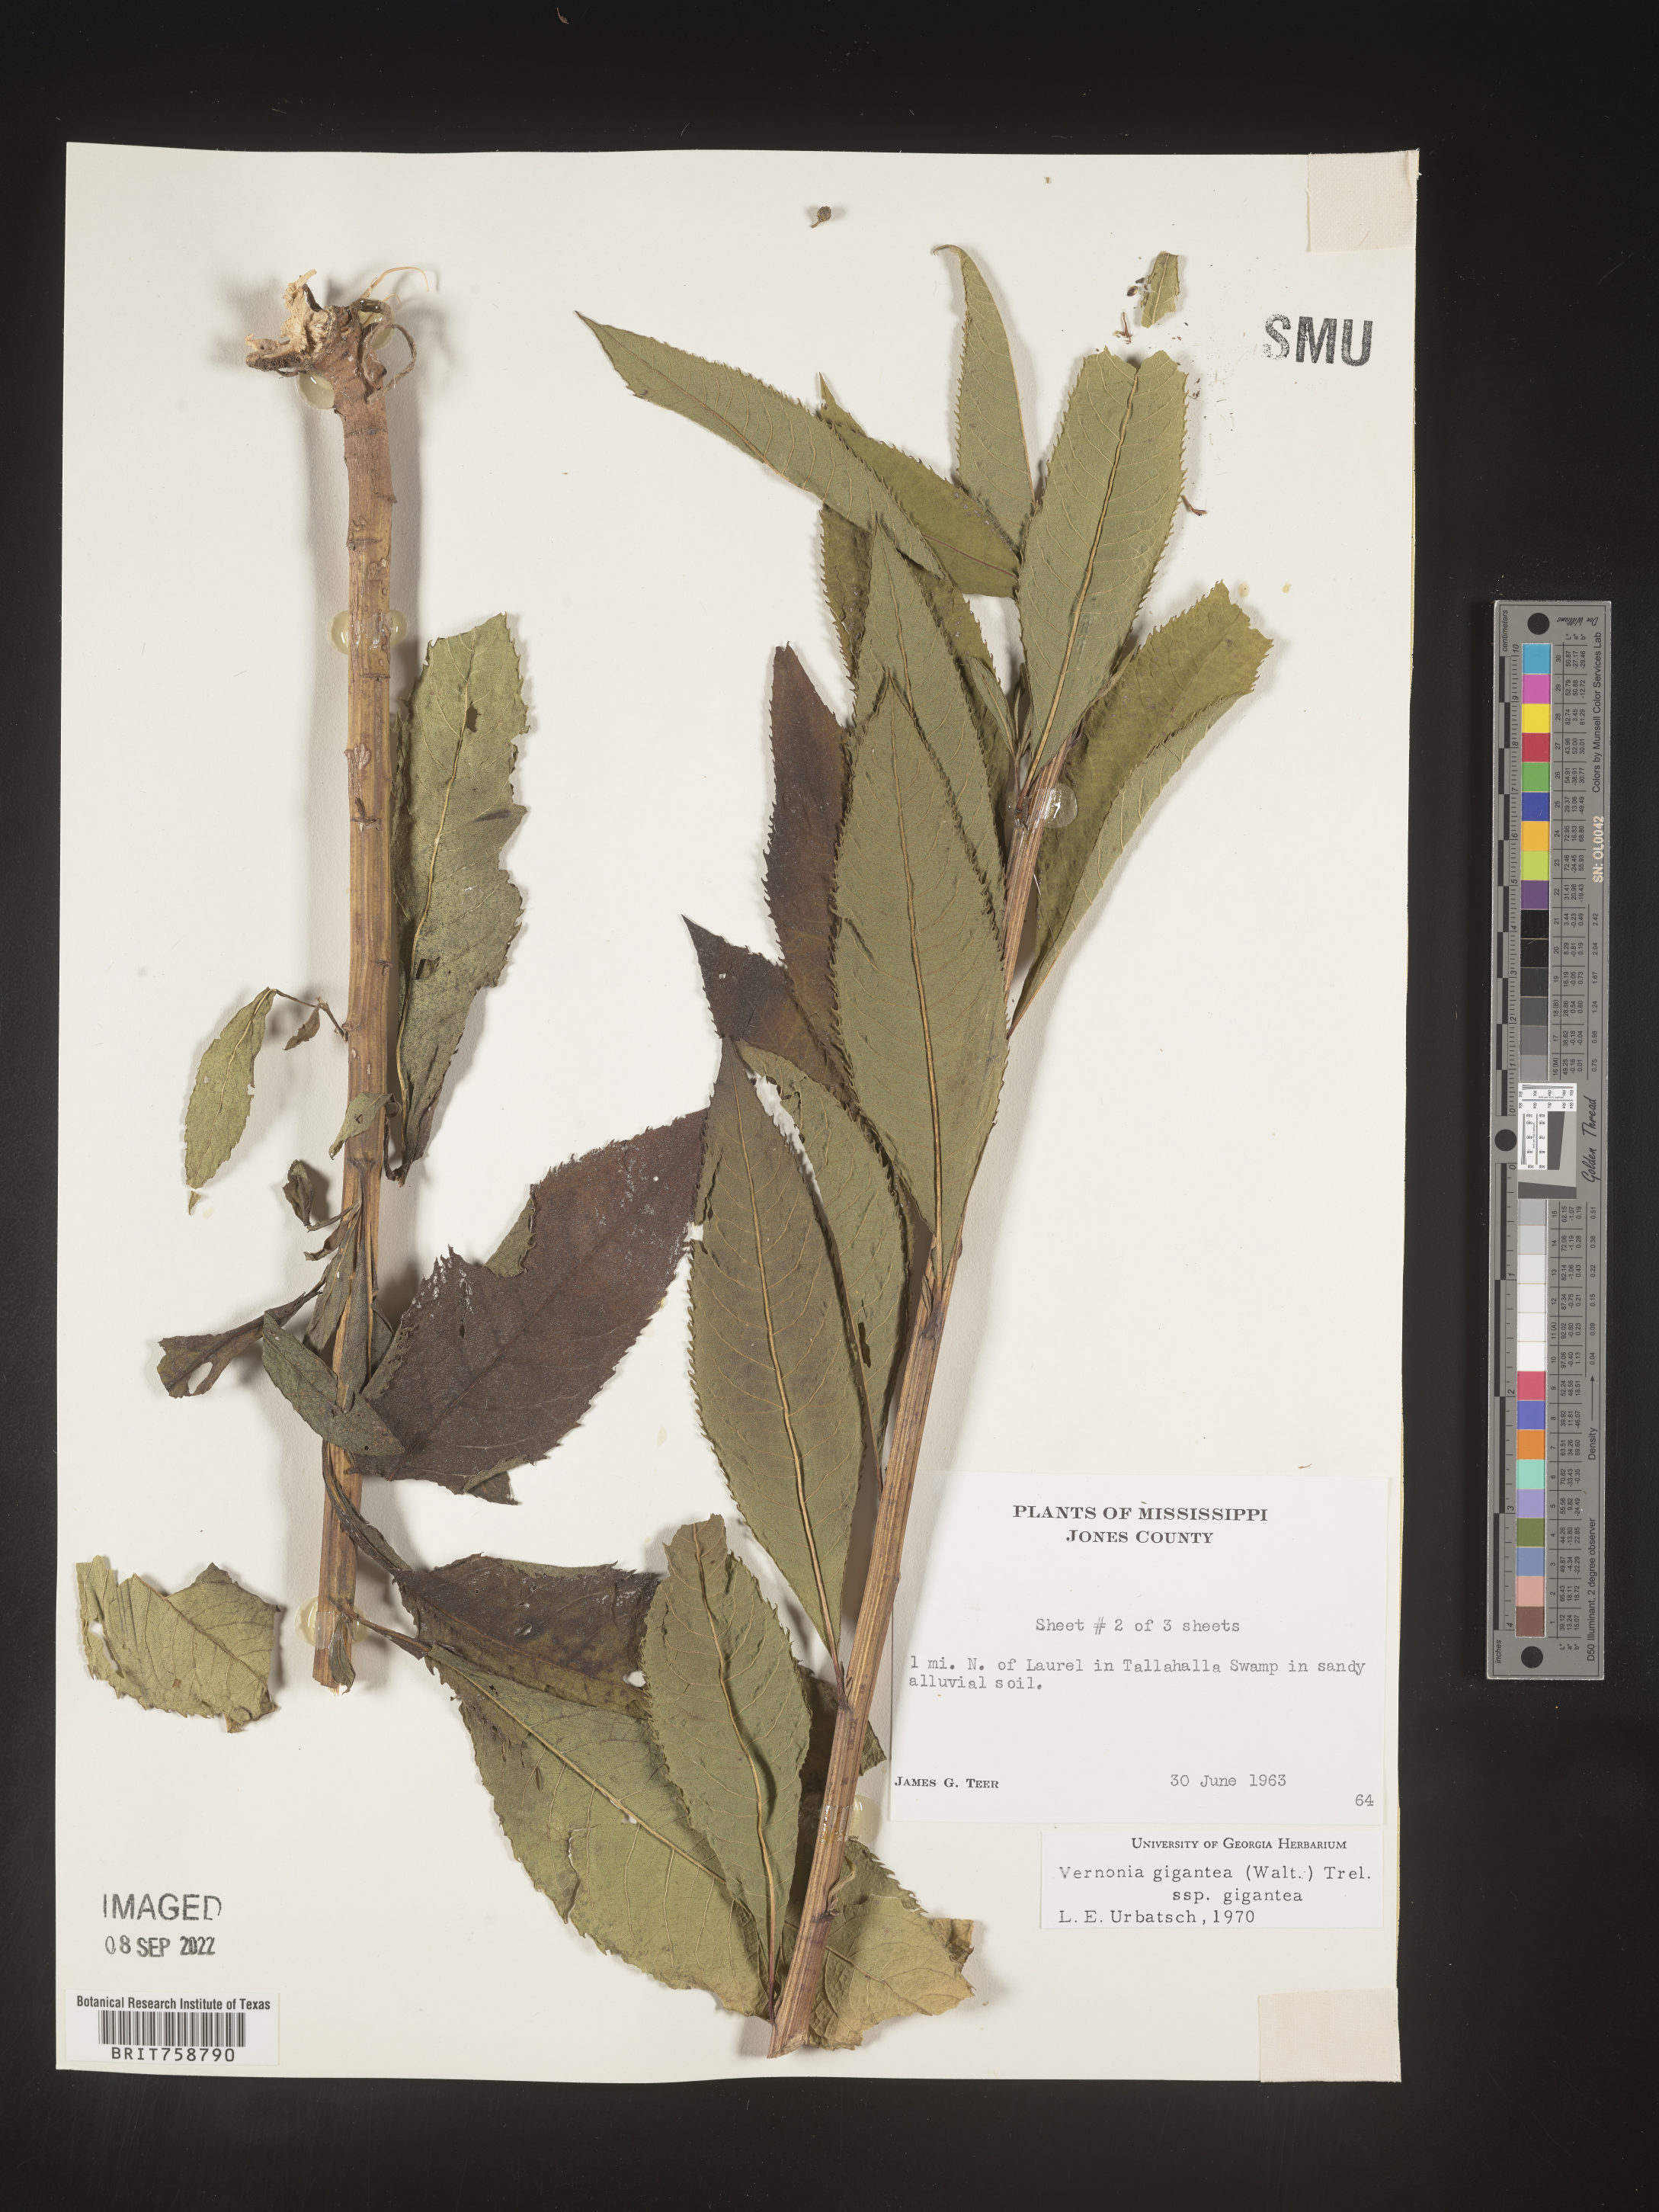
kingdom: Plantae
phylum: Tracheophyta
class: Magnoliopsida
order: Asterales
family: Asteraceae
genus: Vernonia
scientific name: Vernonia gigantea
